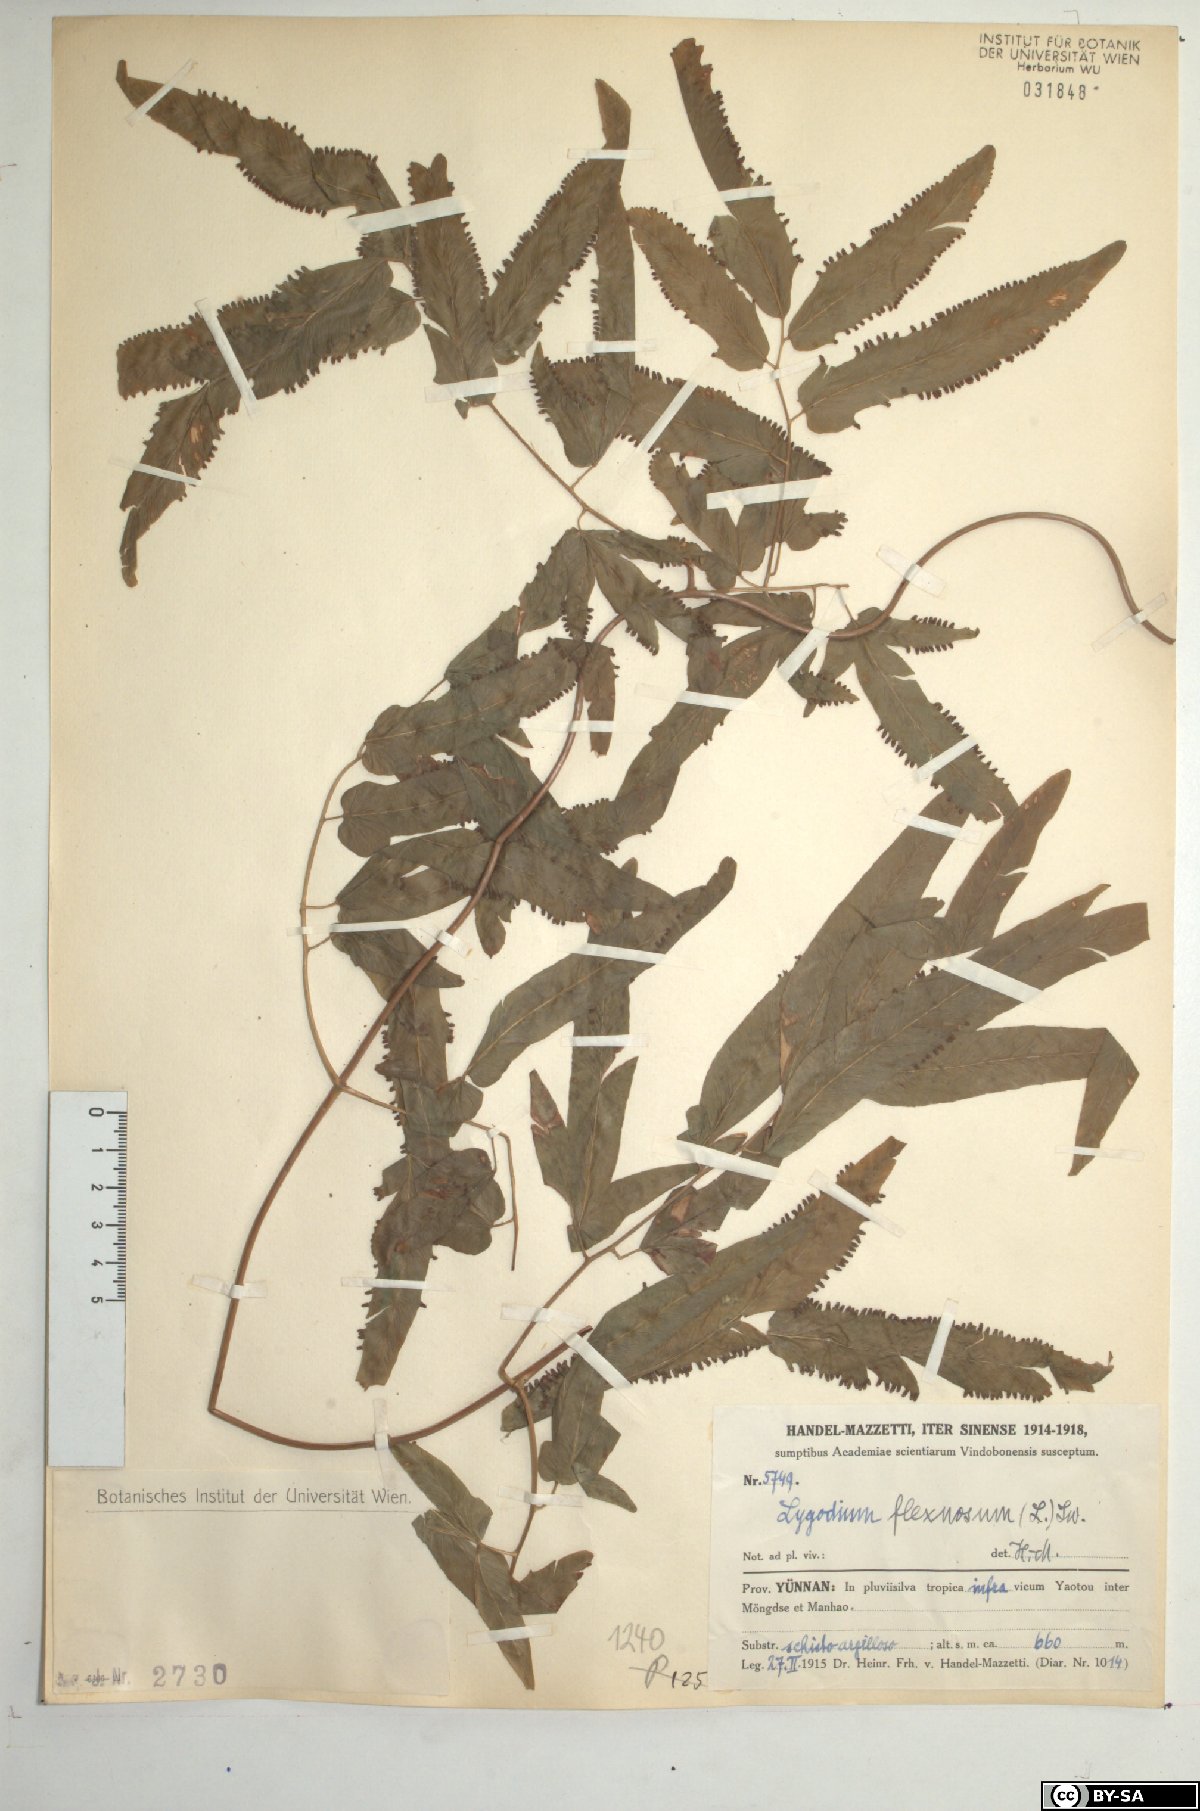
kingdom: Plantae
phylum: Tracheophyta
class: Polypodiopsida
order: Schizaeales
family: Lygodiaceae
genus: Lygodium
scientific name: Lygodium flexuosum
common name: Maidenhair creeper
